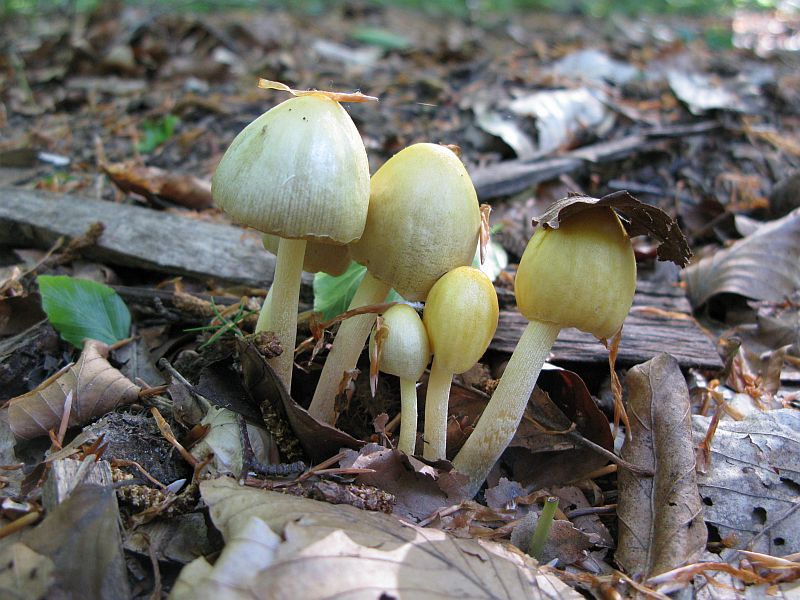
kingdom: Fungi
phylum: Basidiomycota
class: Agaricomycetes
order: Agaricales
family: Bolbitiaceae
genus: Bolbitius
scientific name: Bolbitius titubans
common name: almindelig gulhat
